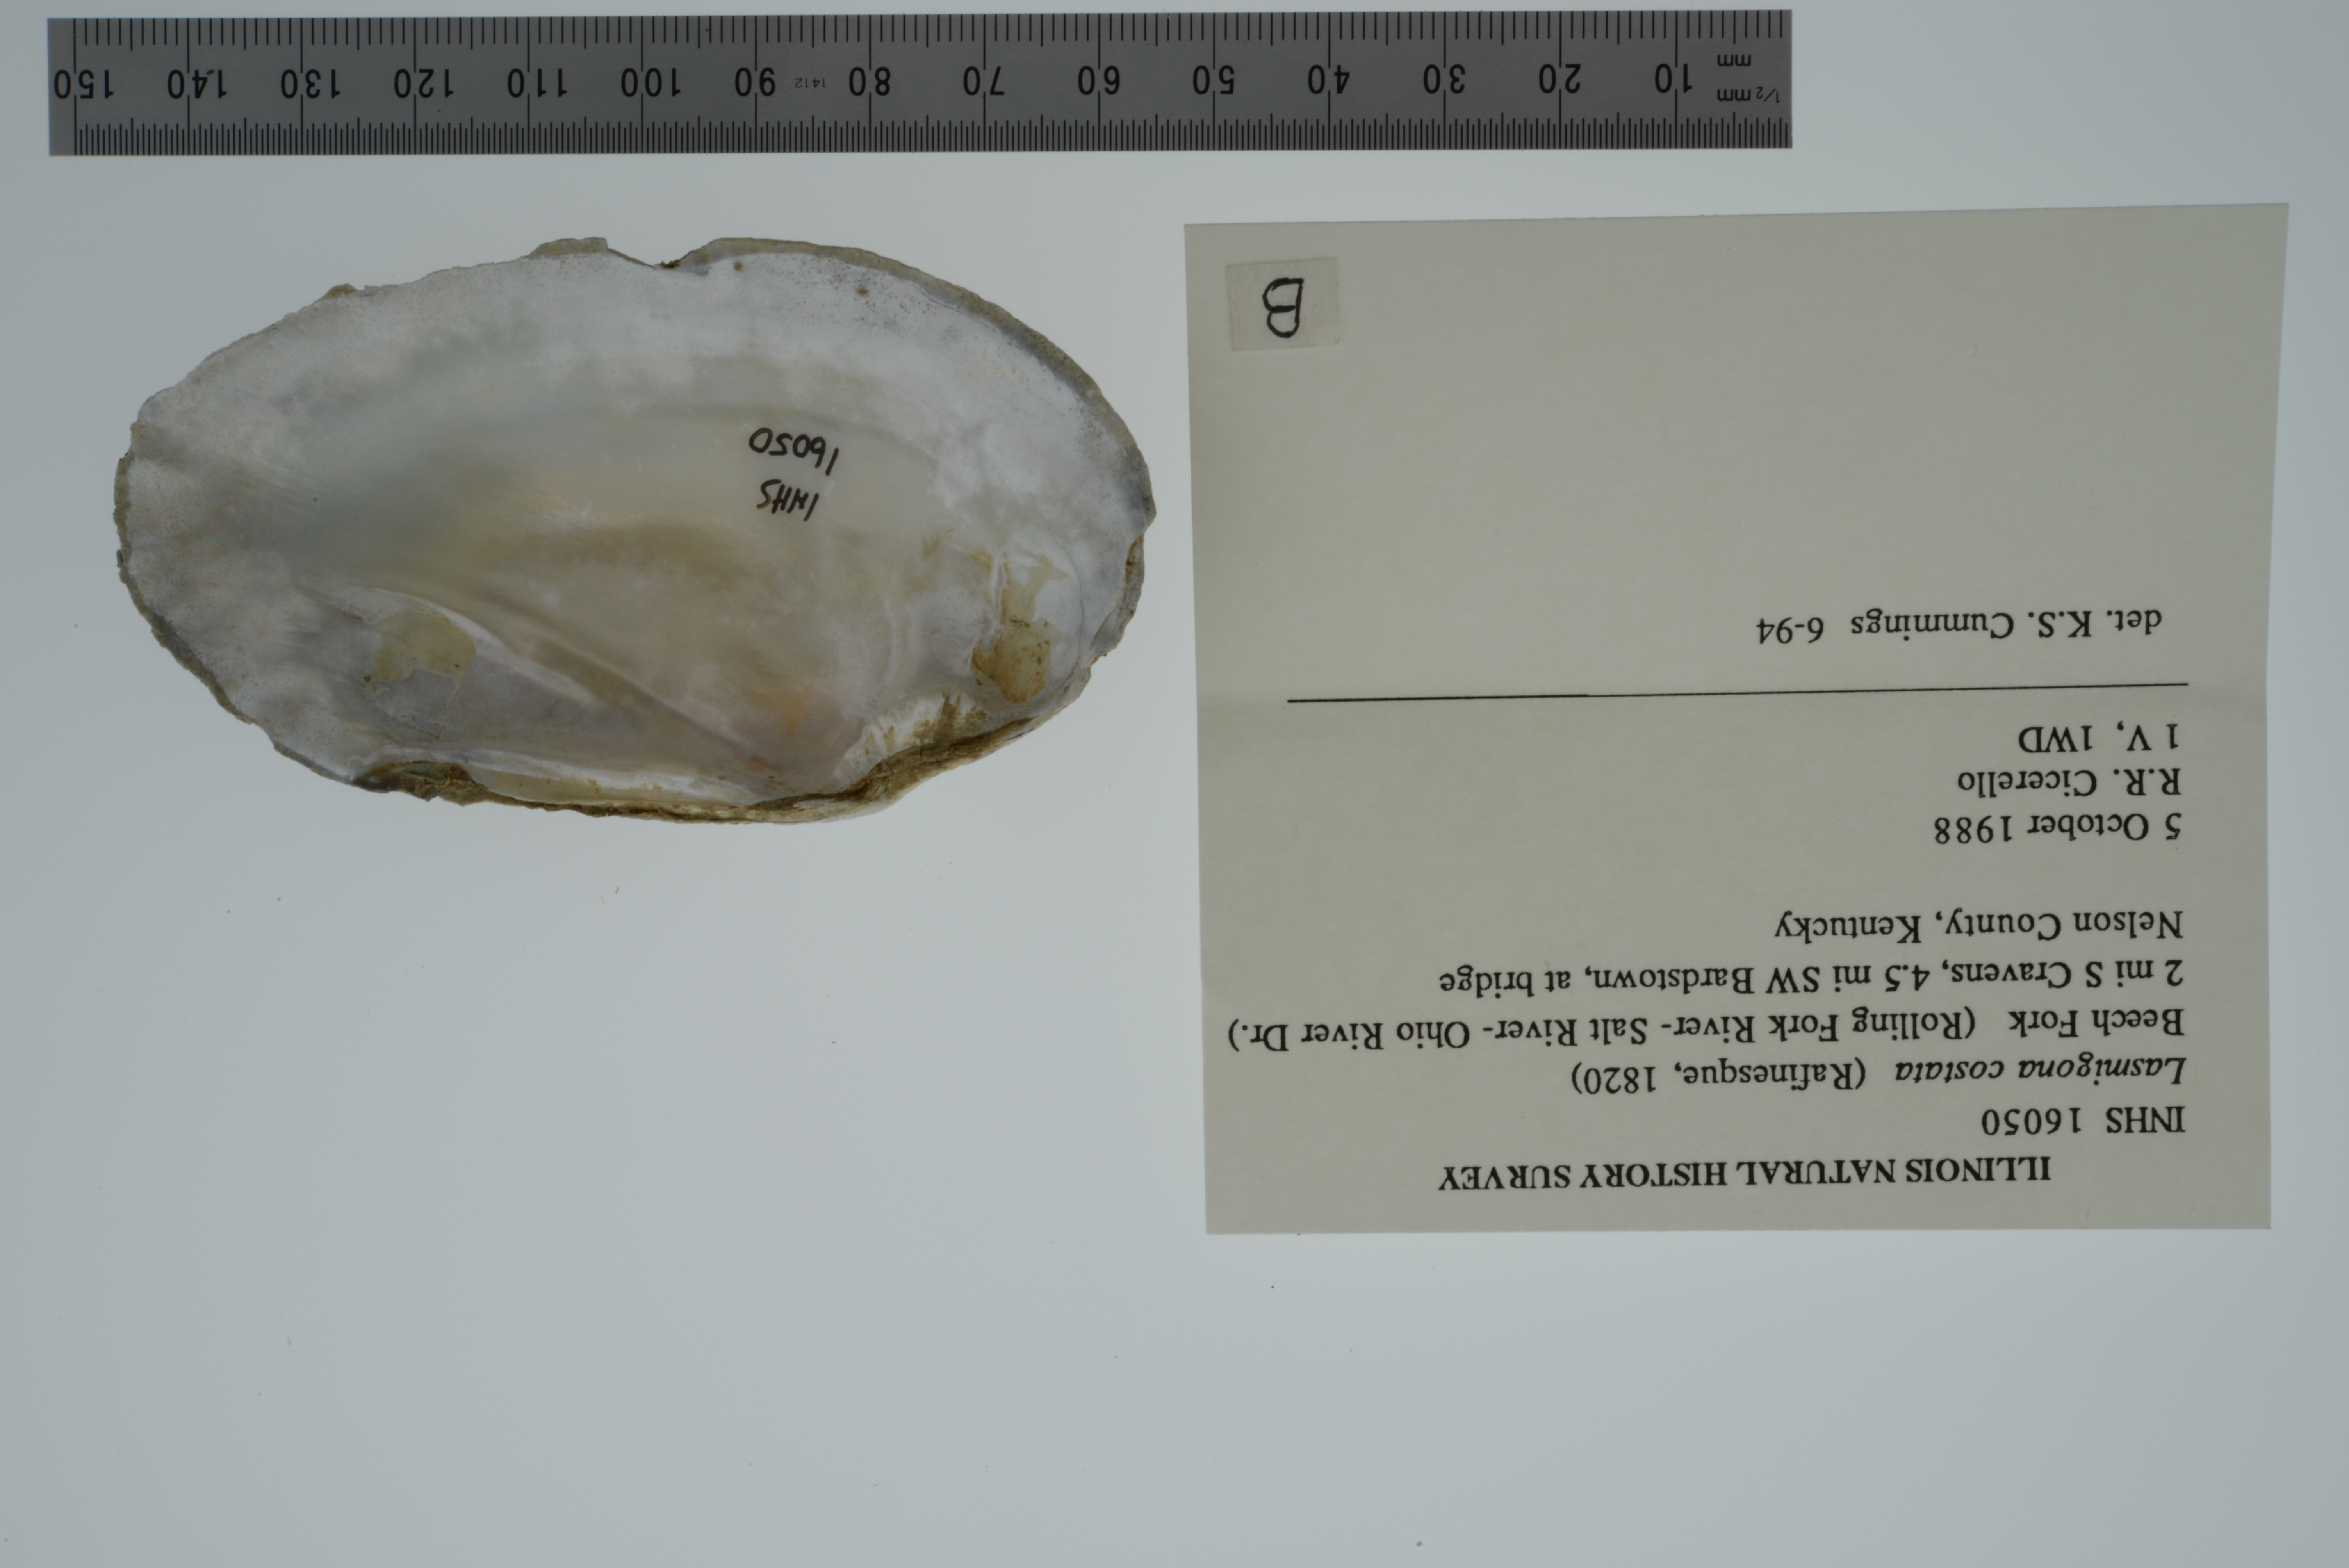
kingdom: Animalia
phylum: Mollusca
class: Bivalvia
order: Unionida
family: Unionidae
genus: Lasmigona
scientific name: Lasmigona costata
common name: Flutedshell
